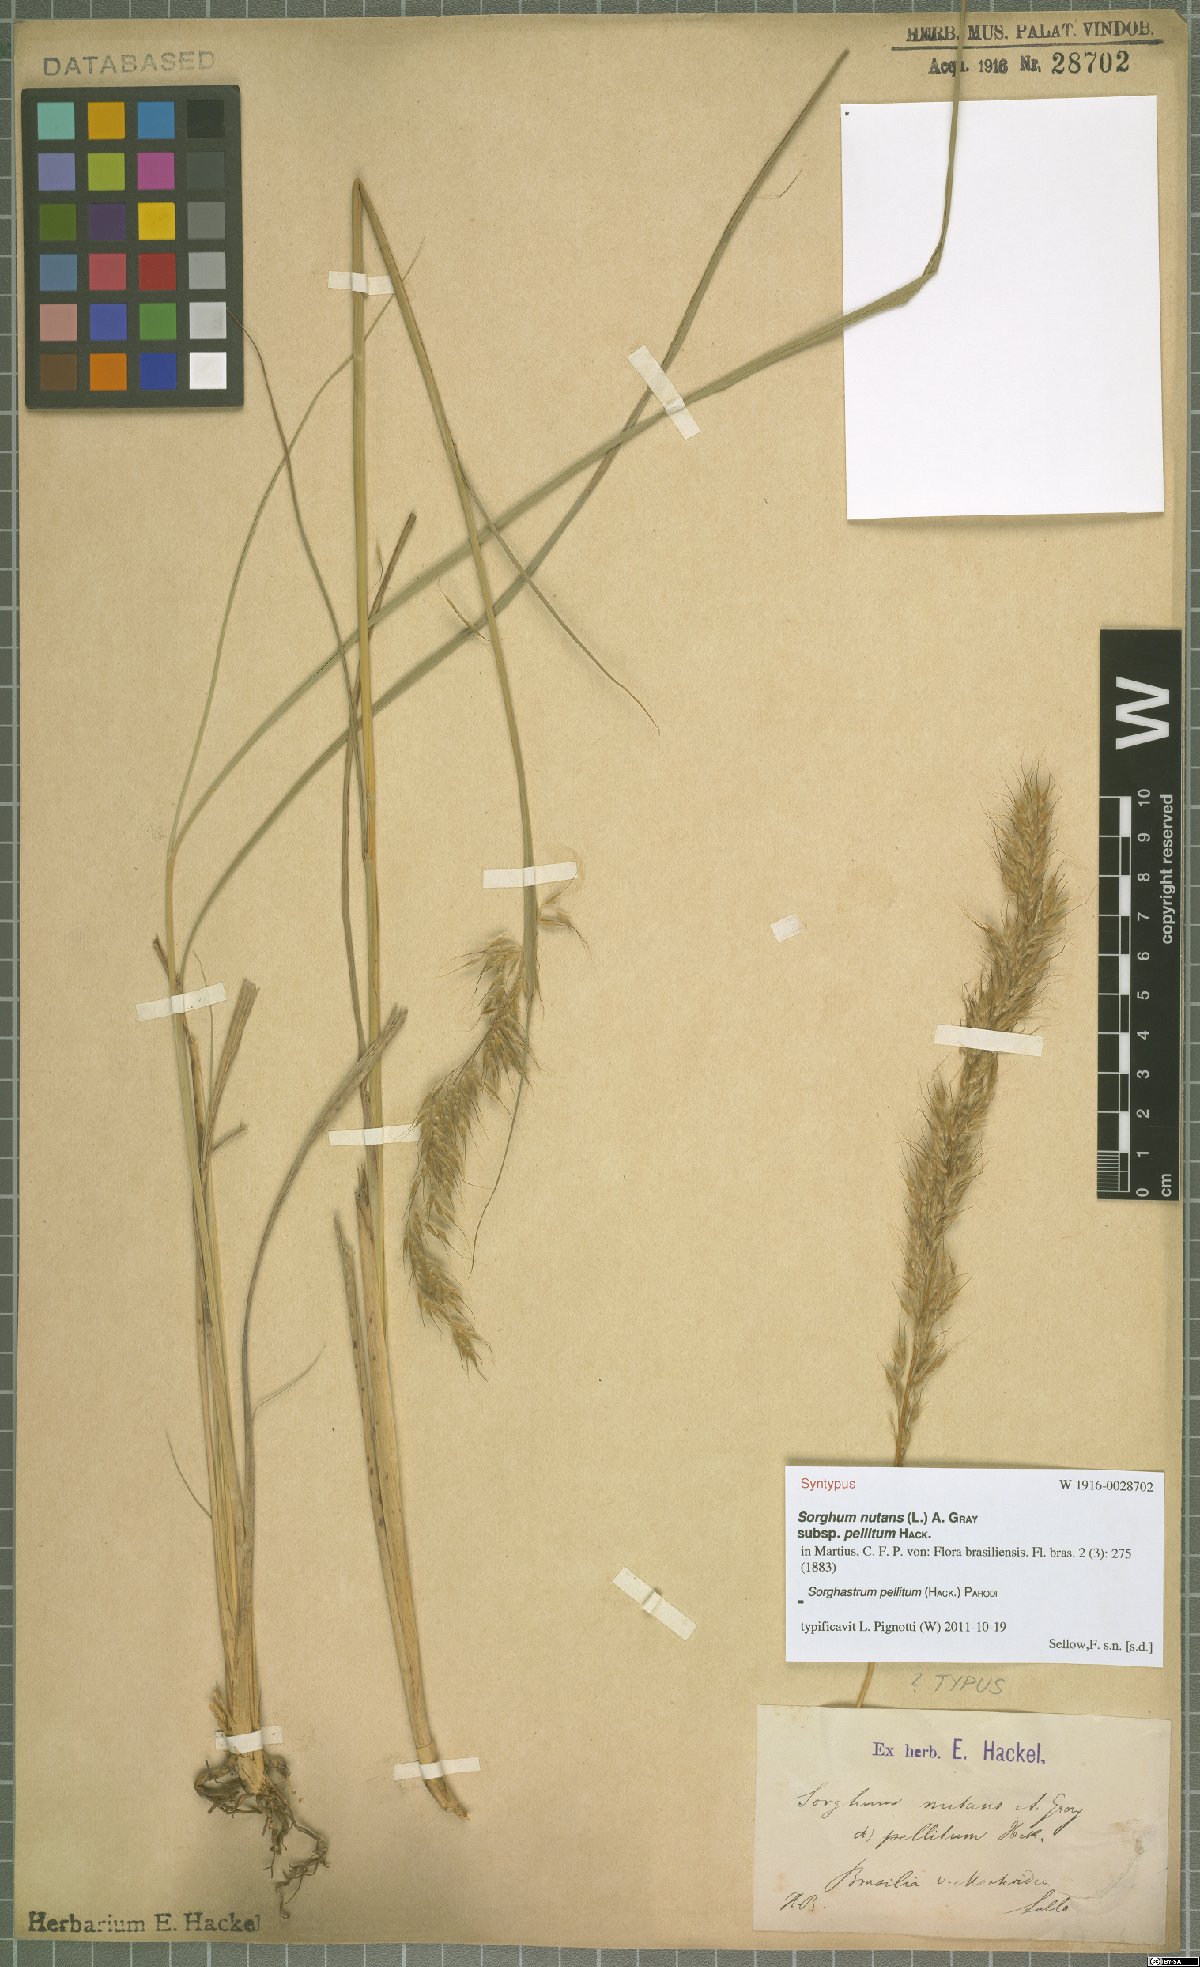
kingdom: Plantae
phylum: Tracheophyta
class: Liliopsida
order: Poales
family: Poaceae
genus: Sorghastrum
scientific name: Sorghastrum pellitum
